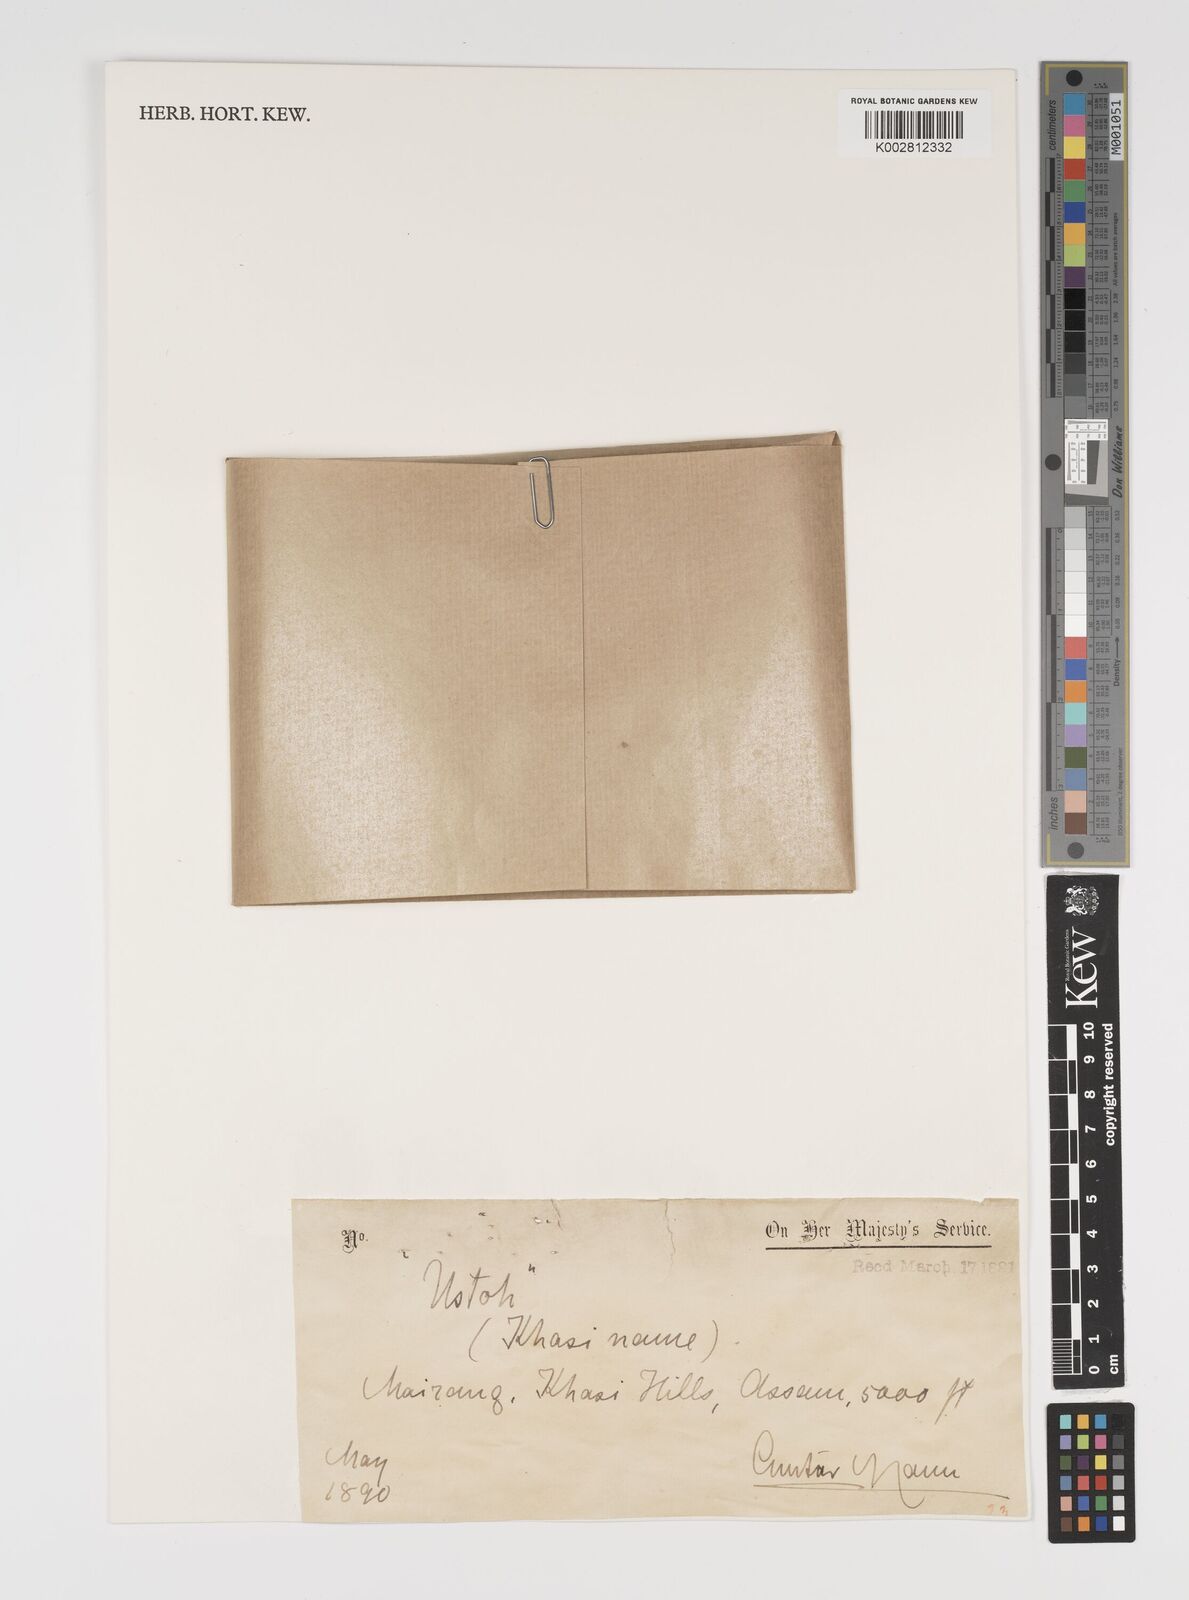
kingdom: Plantae
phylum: Tracheophyta
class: Liliopsida
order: Poales
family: Poaceae
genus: Yushania
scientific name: Yushania hirsuta
